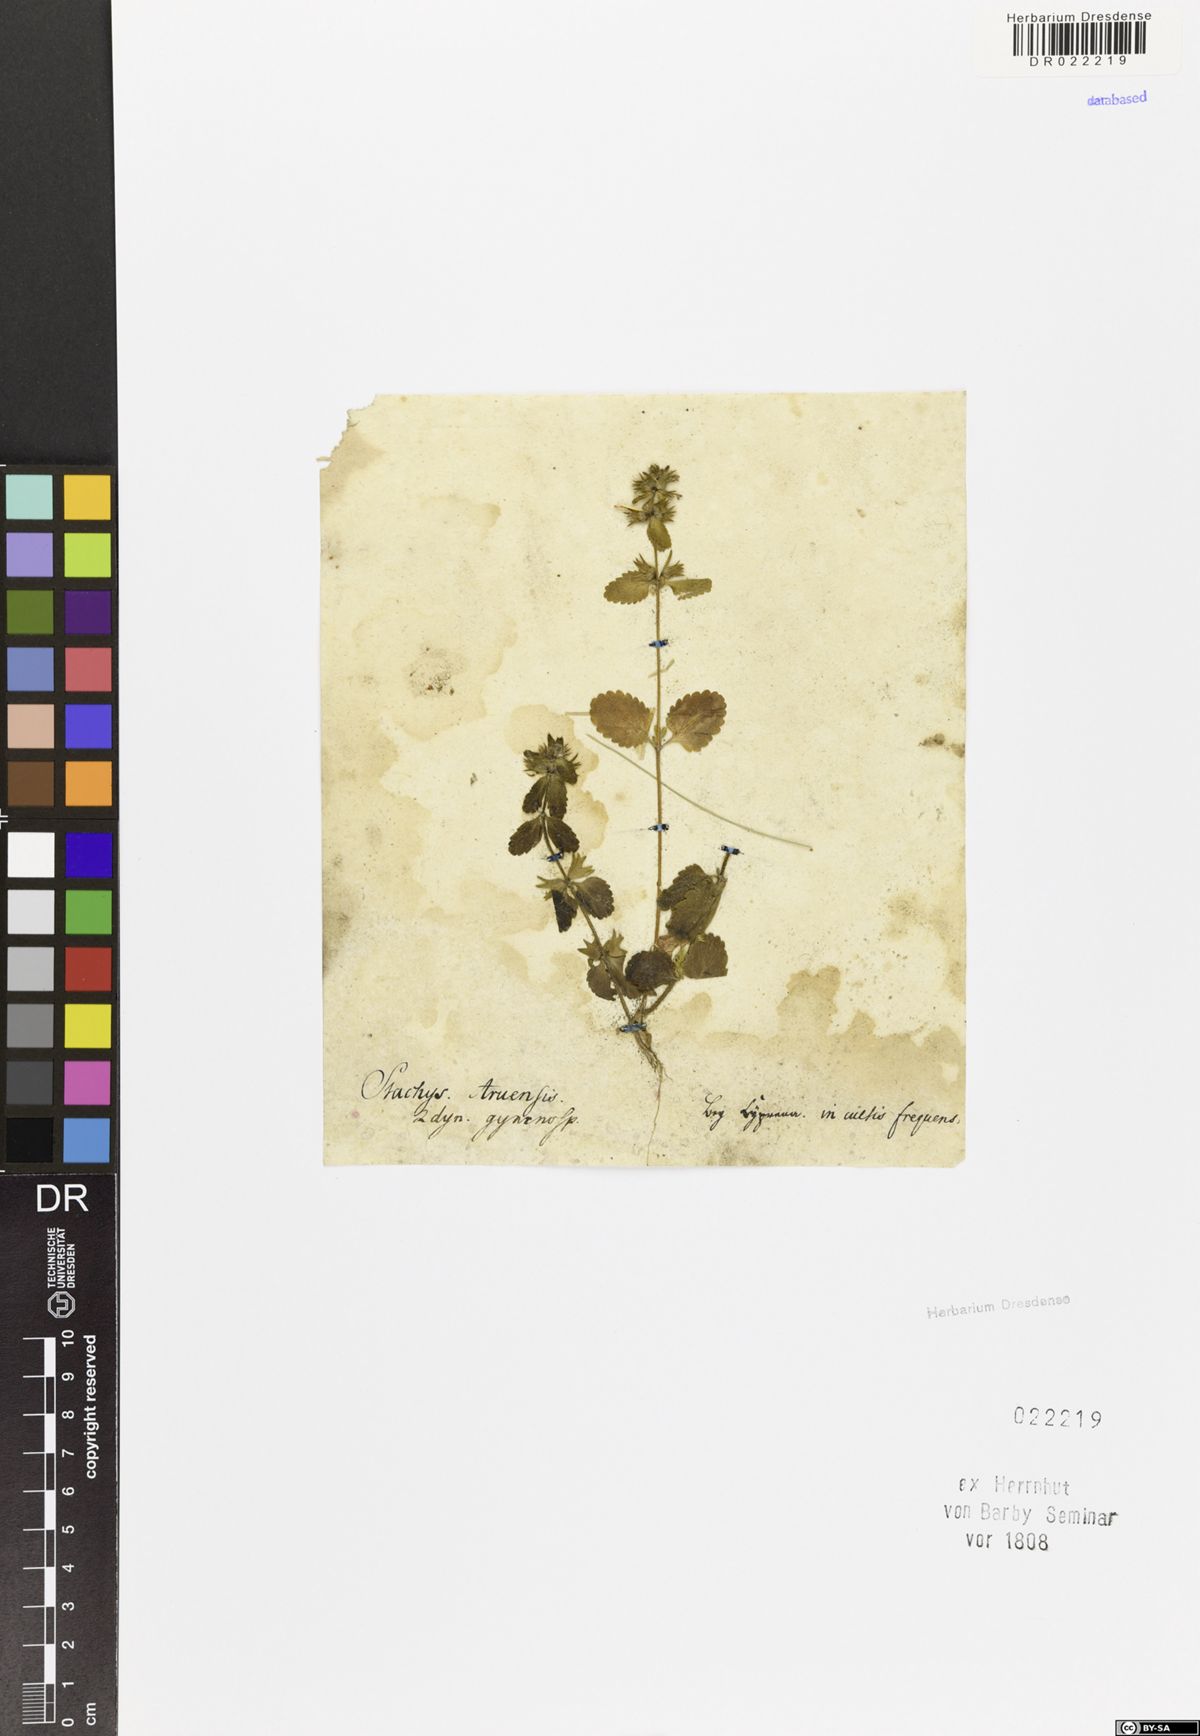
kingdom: Plantae
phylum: Tracheophyta
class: Magnoliopsida
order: Lamiales
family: Lamiaceae
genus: Stachys
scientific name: Stachys arvensis
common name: Field woundwort
